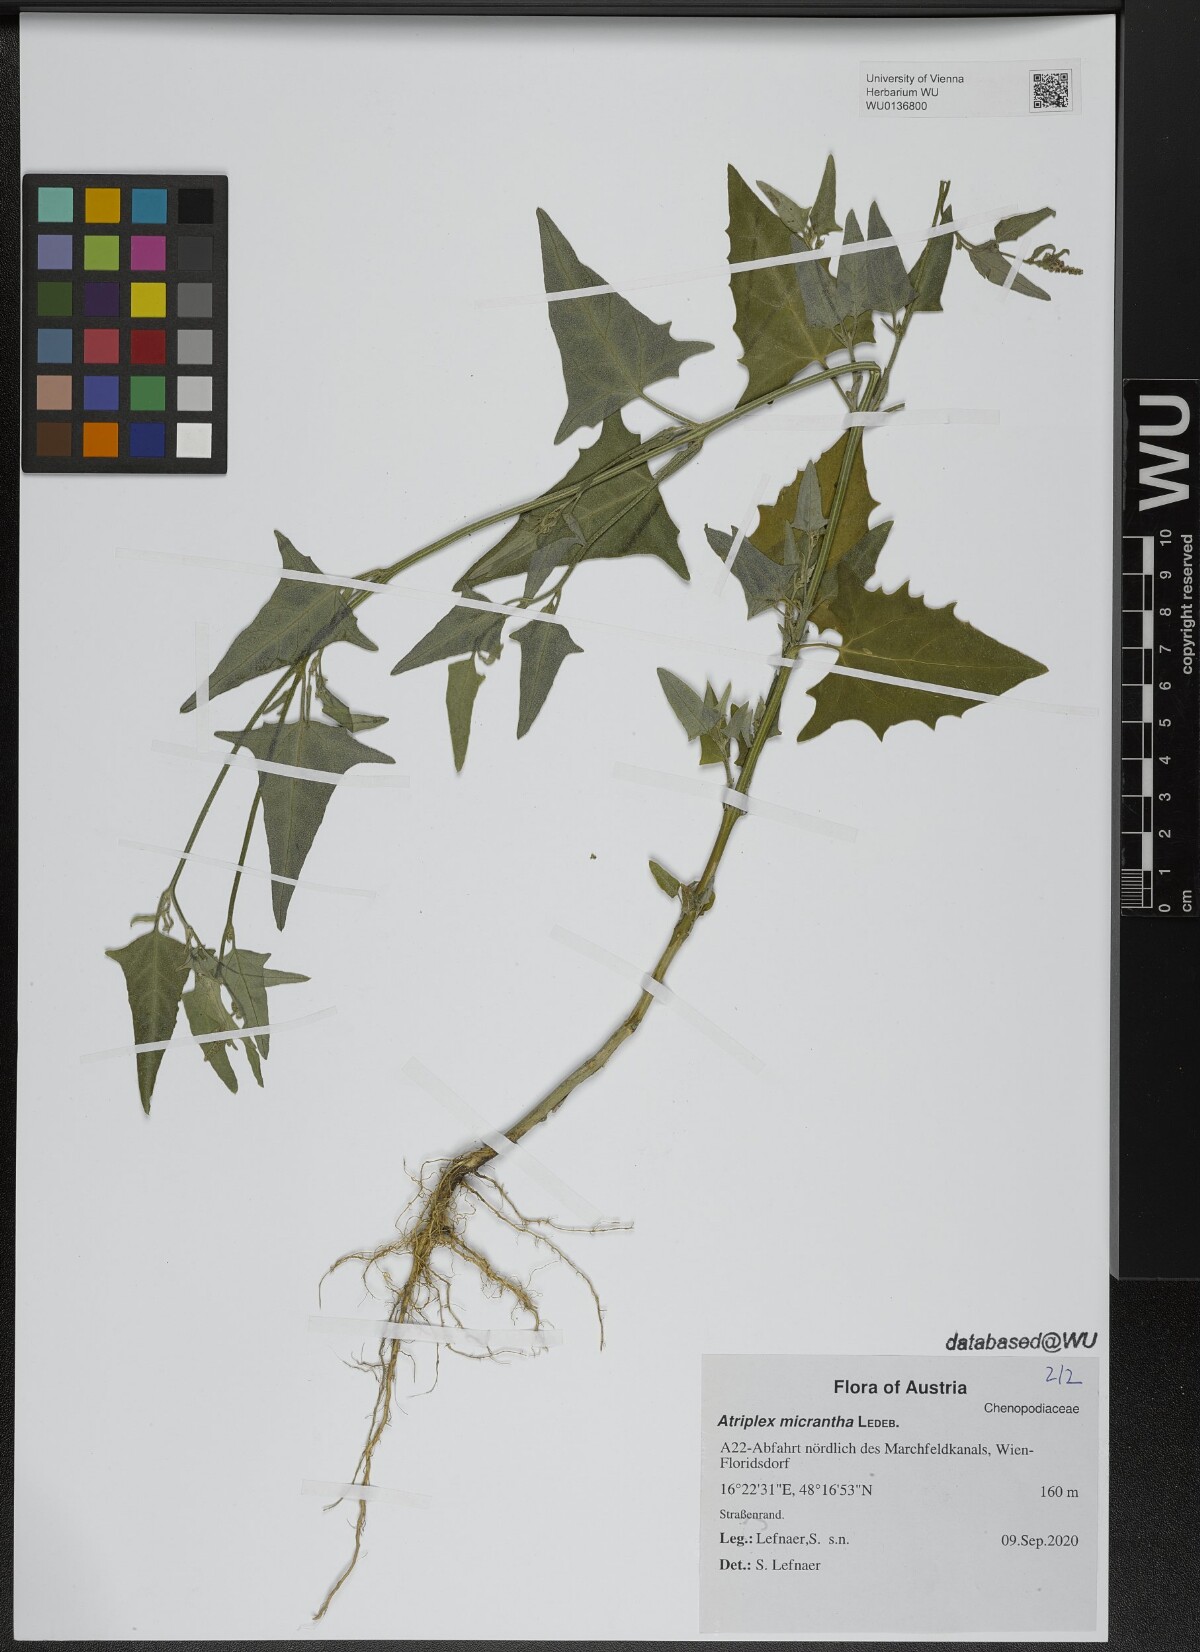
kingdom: Plantae
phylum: Tracheophyta
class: Magnoliopsida
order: Caryophyllales
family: Amaranthaceae
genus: Atriplex
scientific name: Atriplex micrantha
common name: Twoscale saltbush
